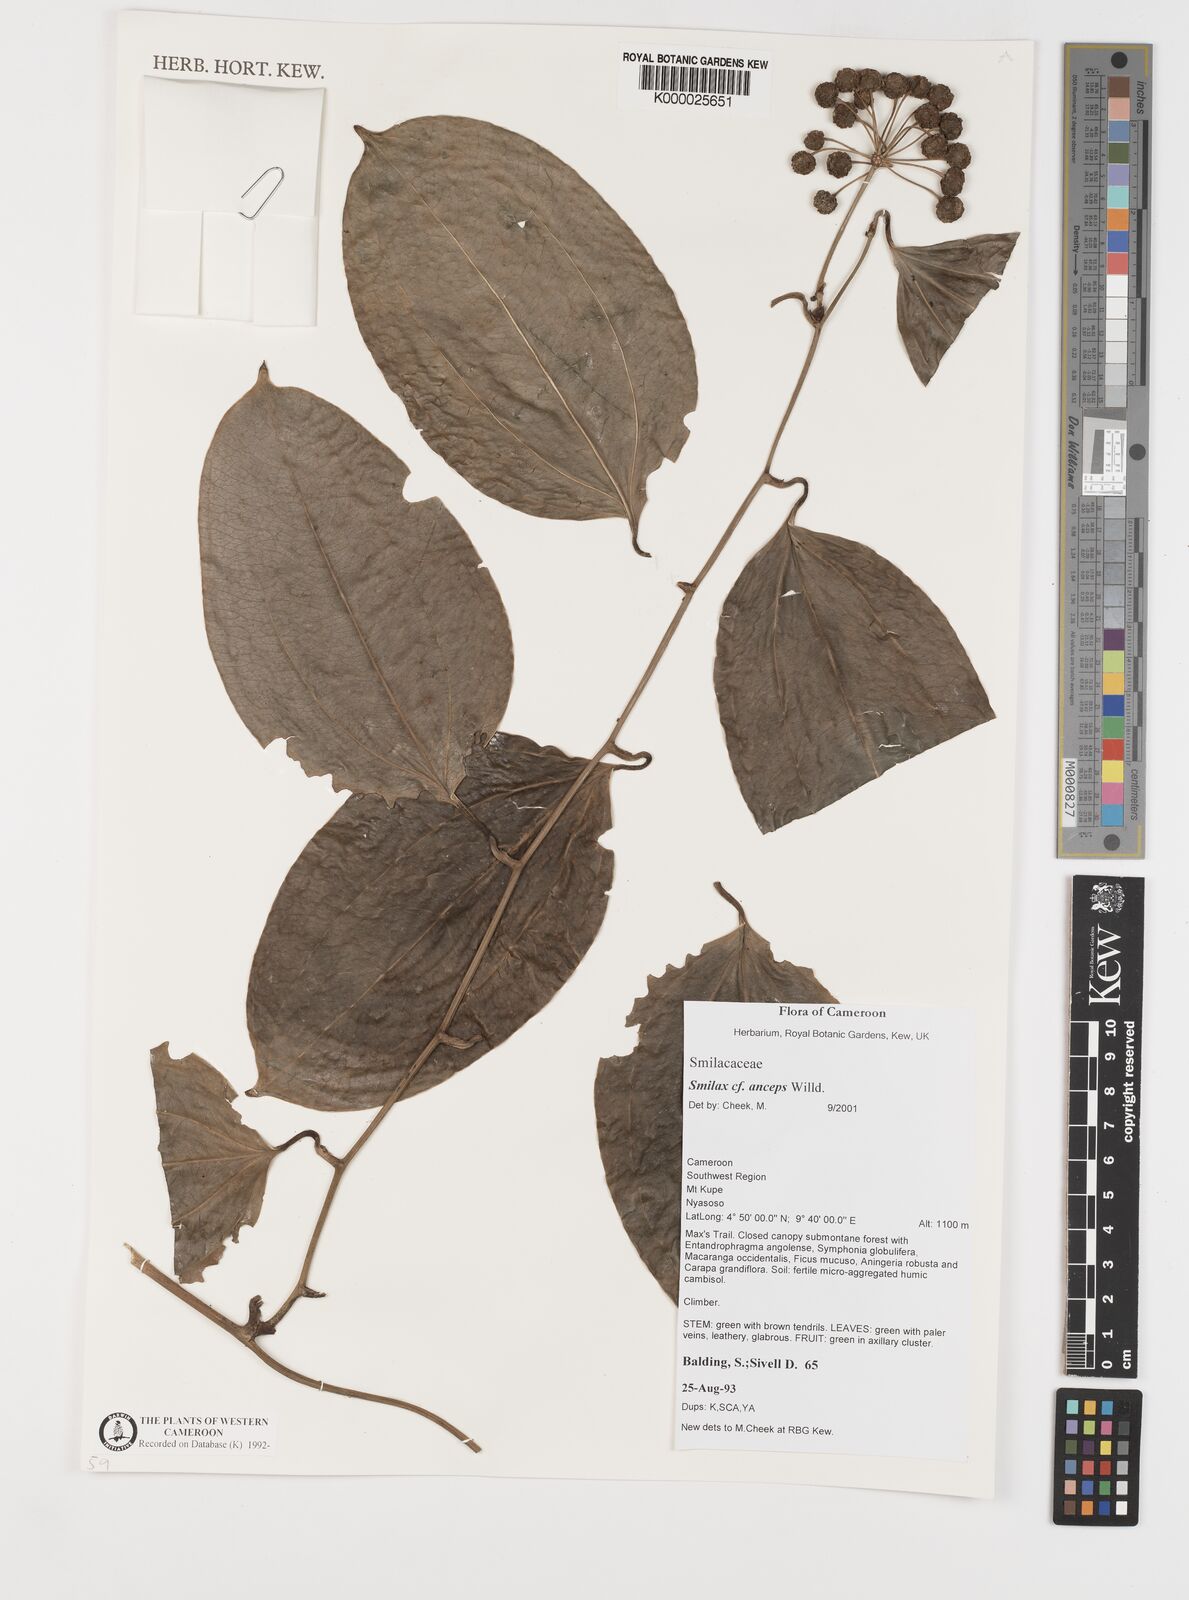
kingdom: Plantae
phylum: Tracheophyta
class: Liliopsida
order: Liliales
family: Smilacaceae
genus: Smilax
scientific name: Smilax anceps
